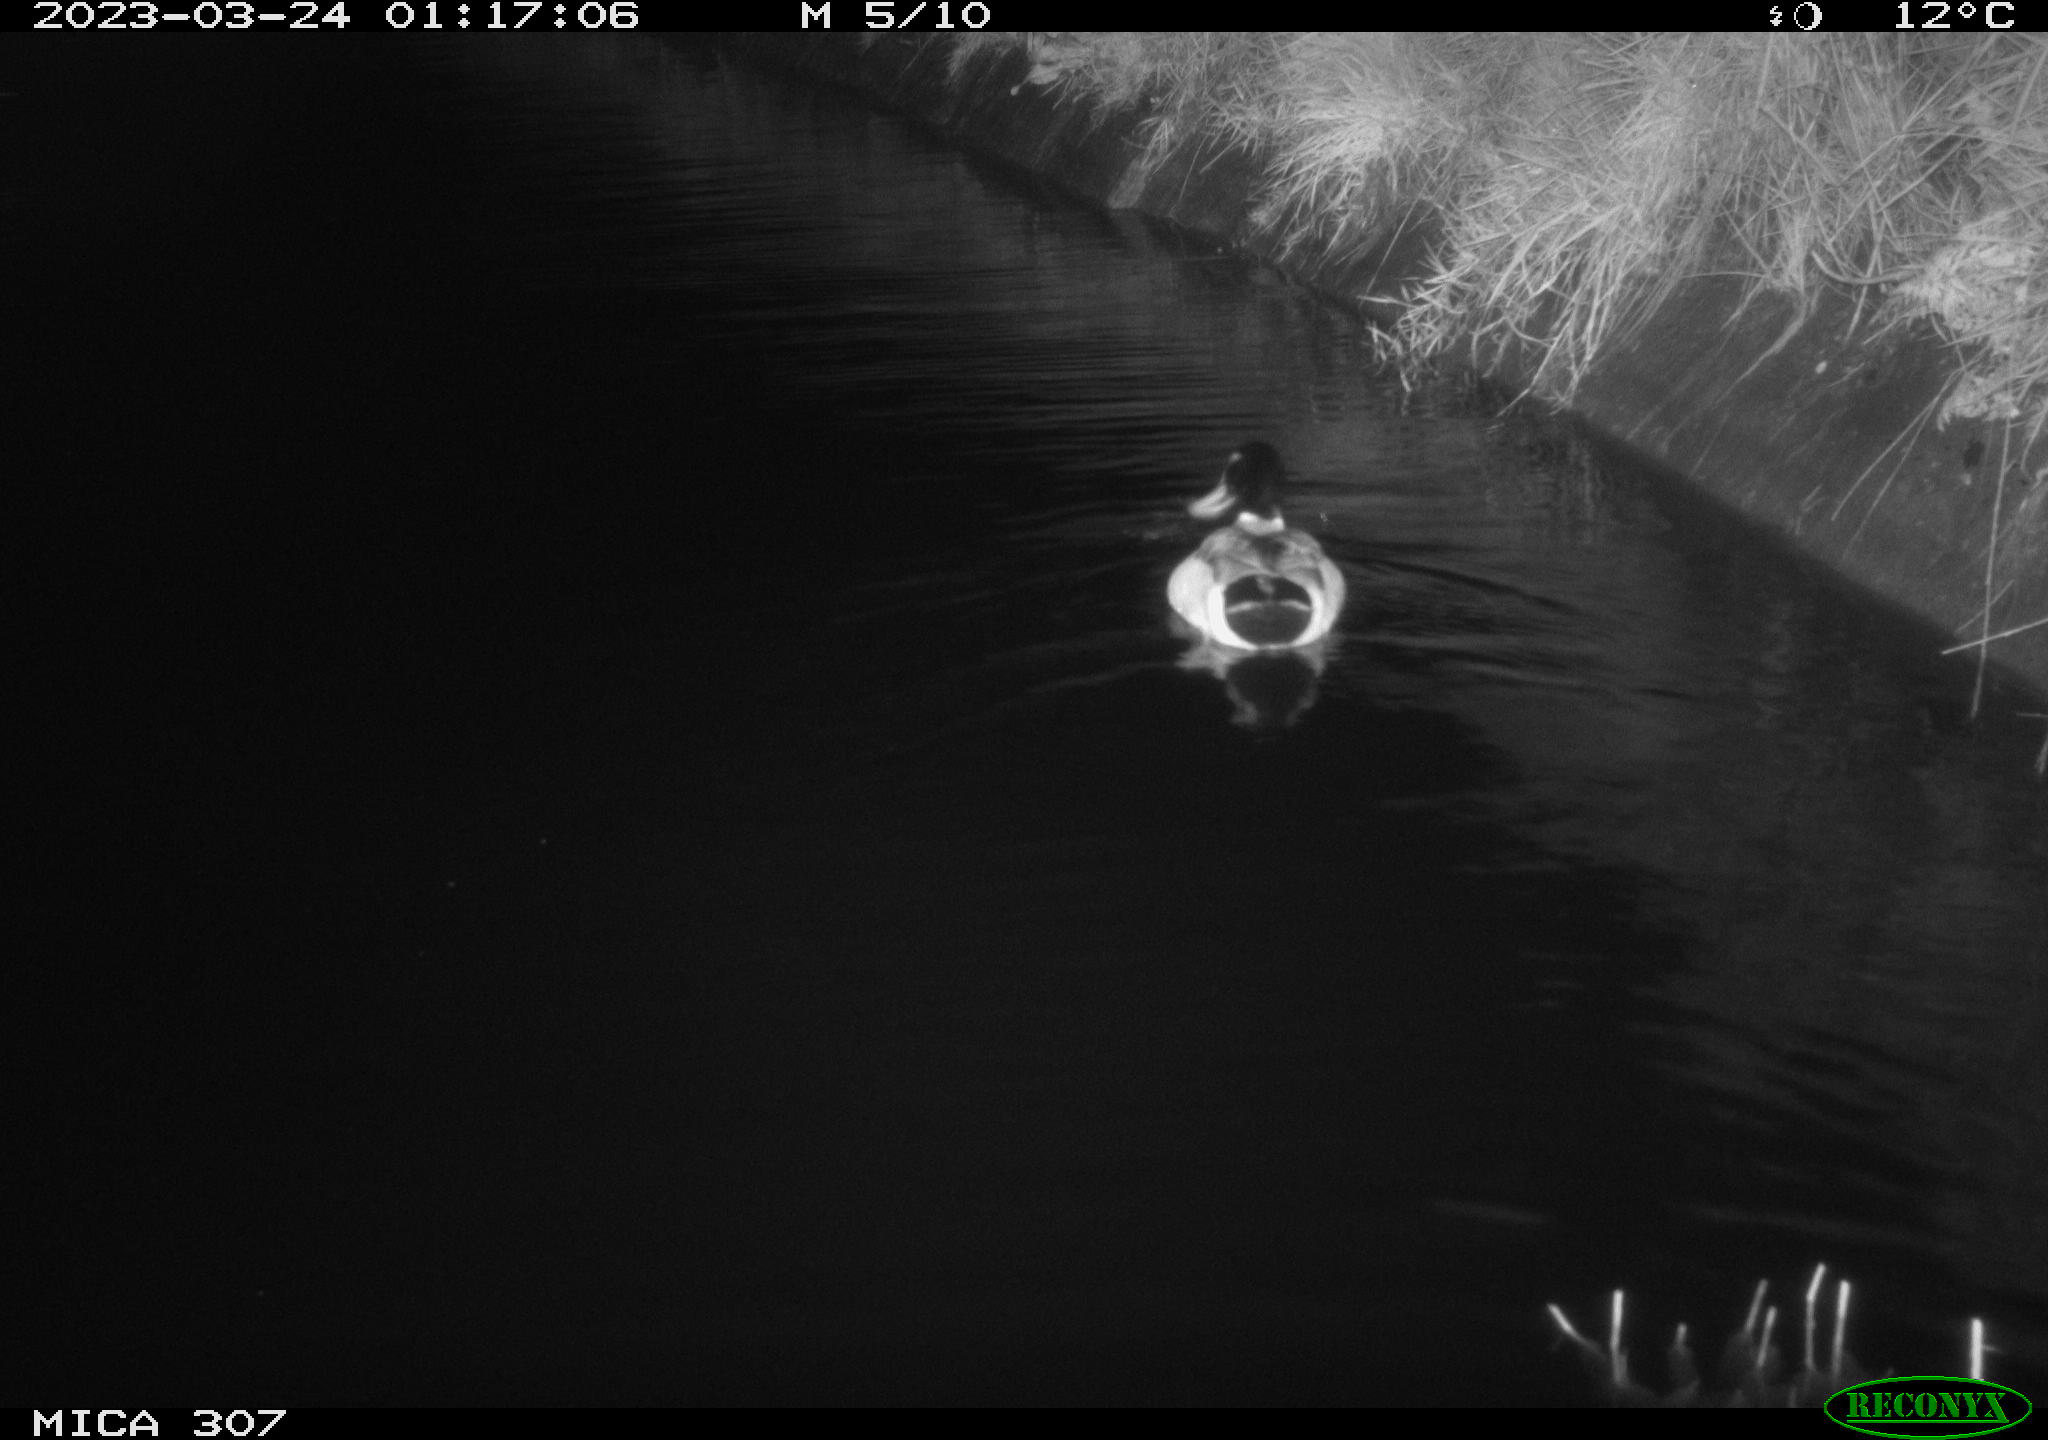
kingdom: Animalia
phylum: Chordata
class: Aves
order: Anseriformes
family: Anatidae
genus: Anas
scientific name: Anas
